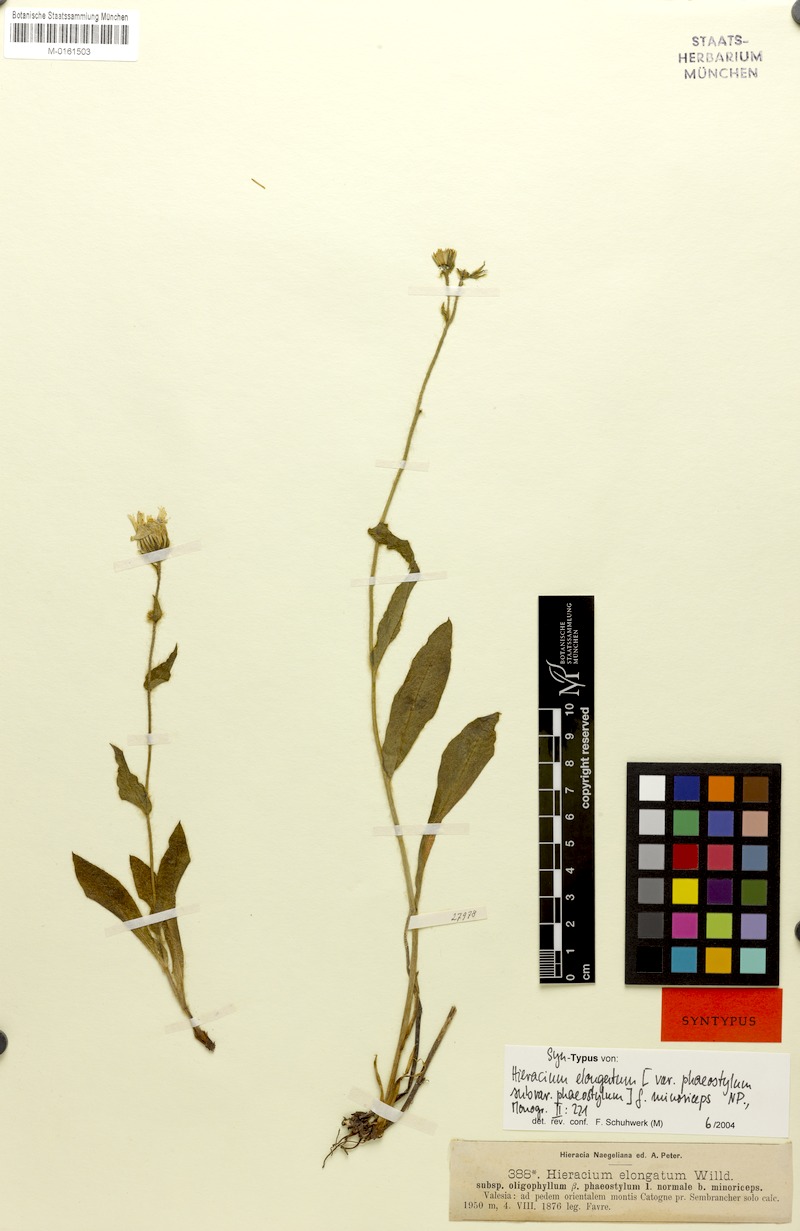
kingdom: Plantae
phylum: Tracheophyta
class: Magnoliopsida
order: Asterales
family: Asteraceae
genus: Hieracium
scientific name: Hieracium valdepilosum
